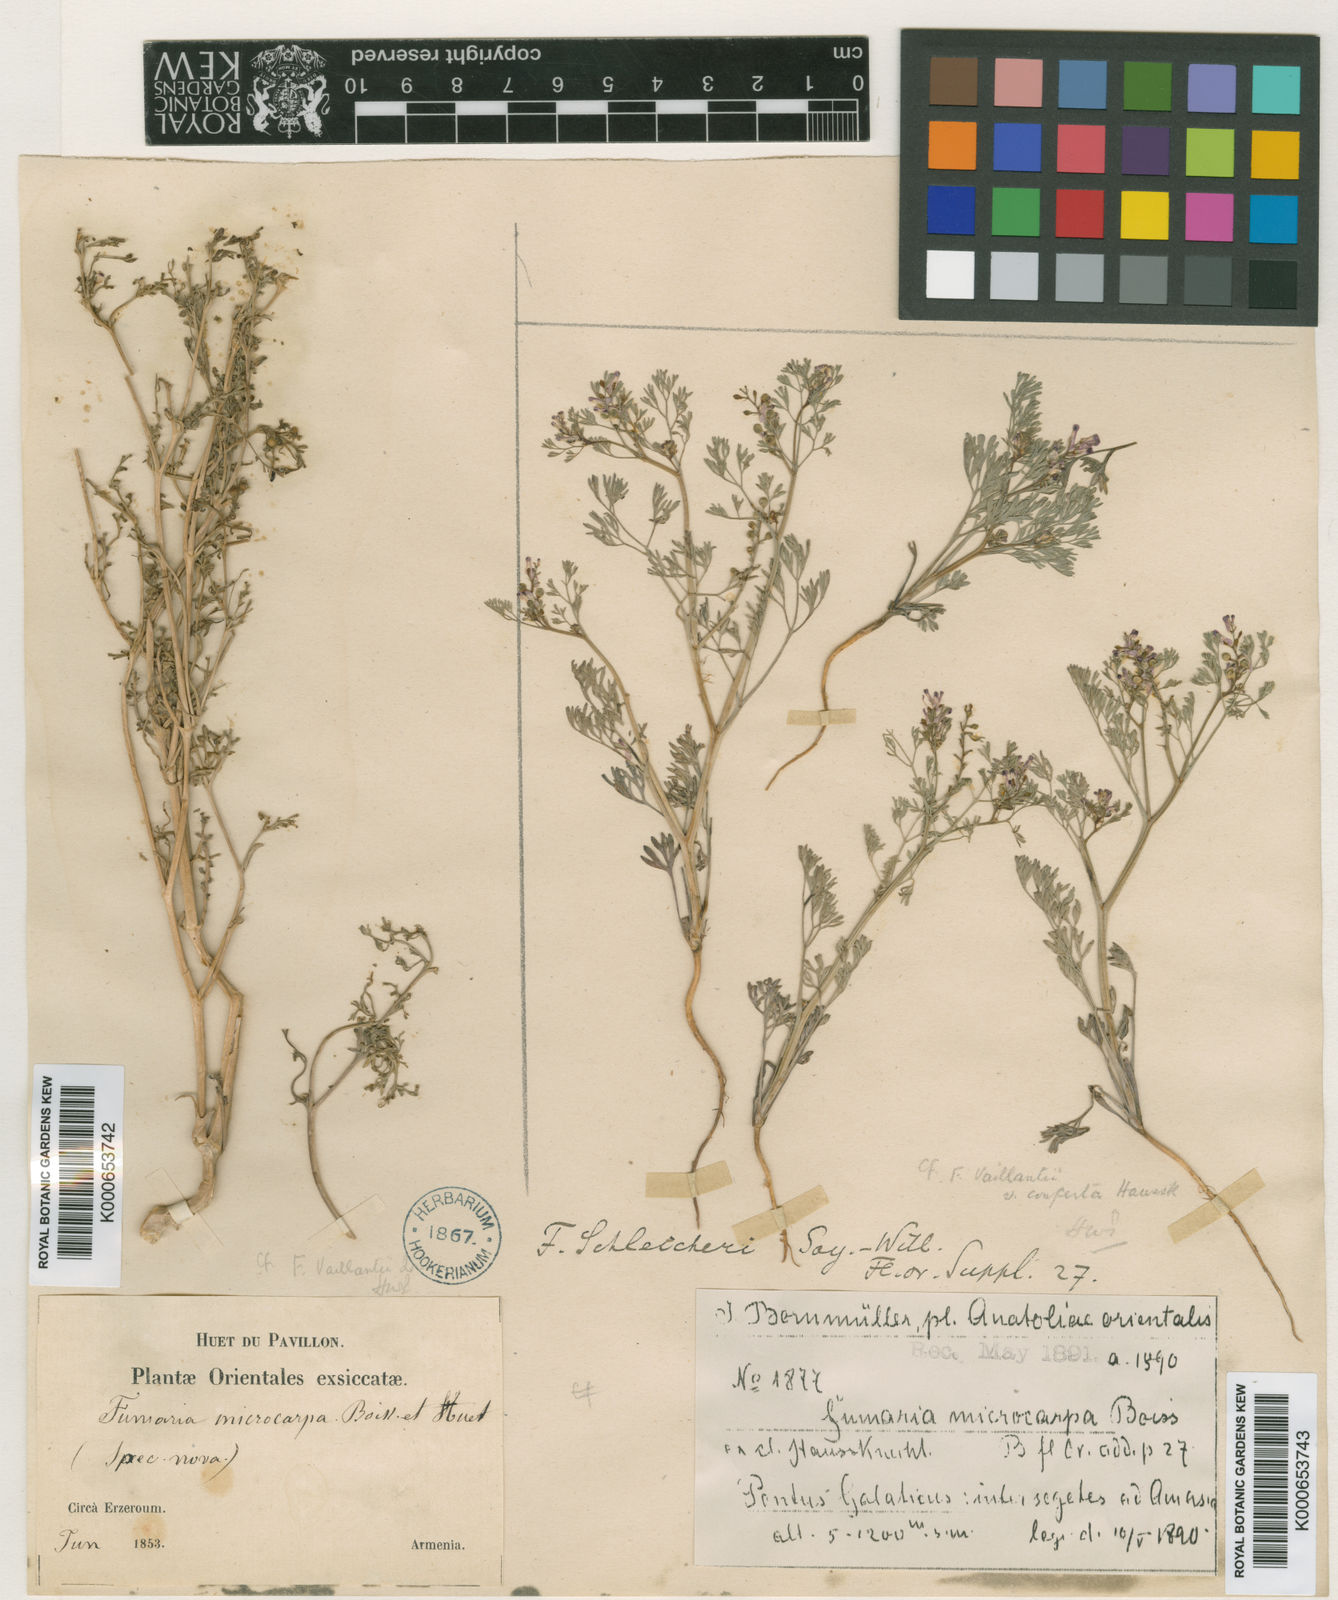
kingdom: Plantae
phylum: Tracheophyta
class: Magnoliopsida
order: Ranunculales
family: Papaveraceae
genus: Fumaria
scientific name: Fumaria schleicheri
